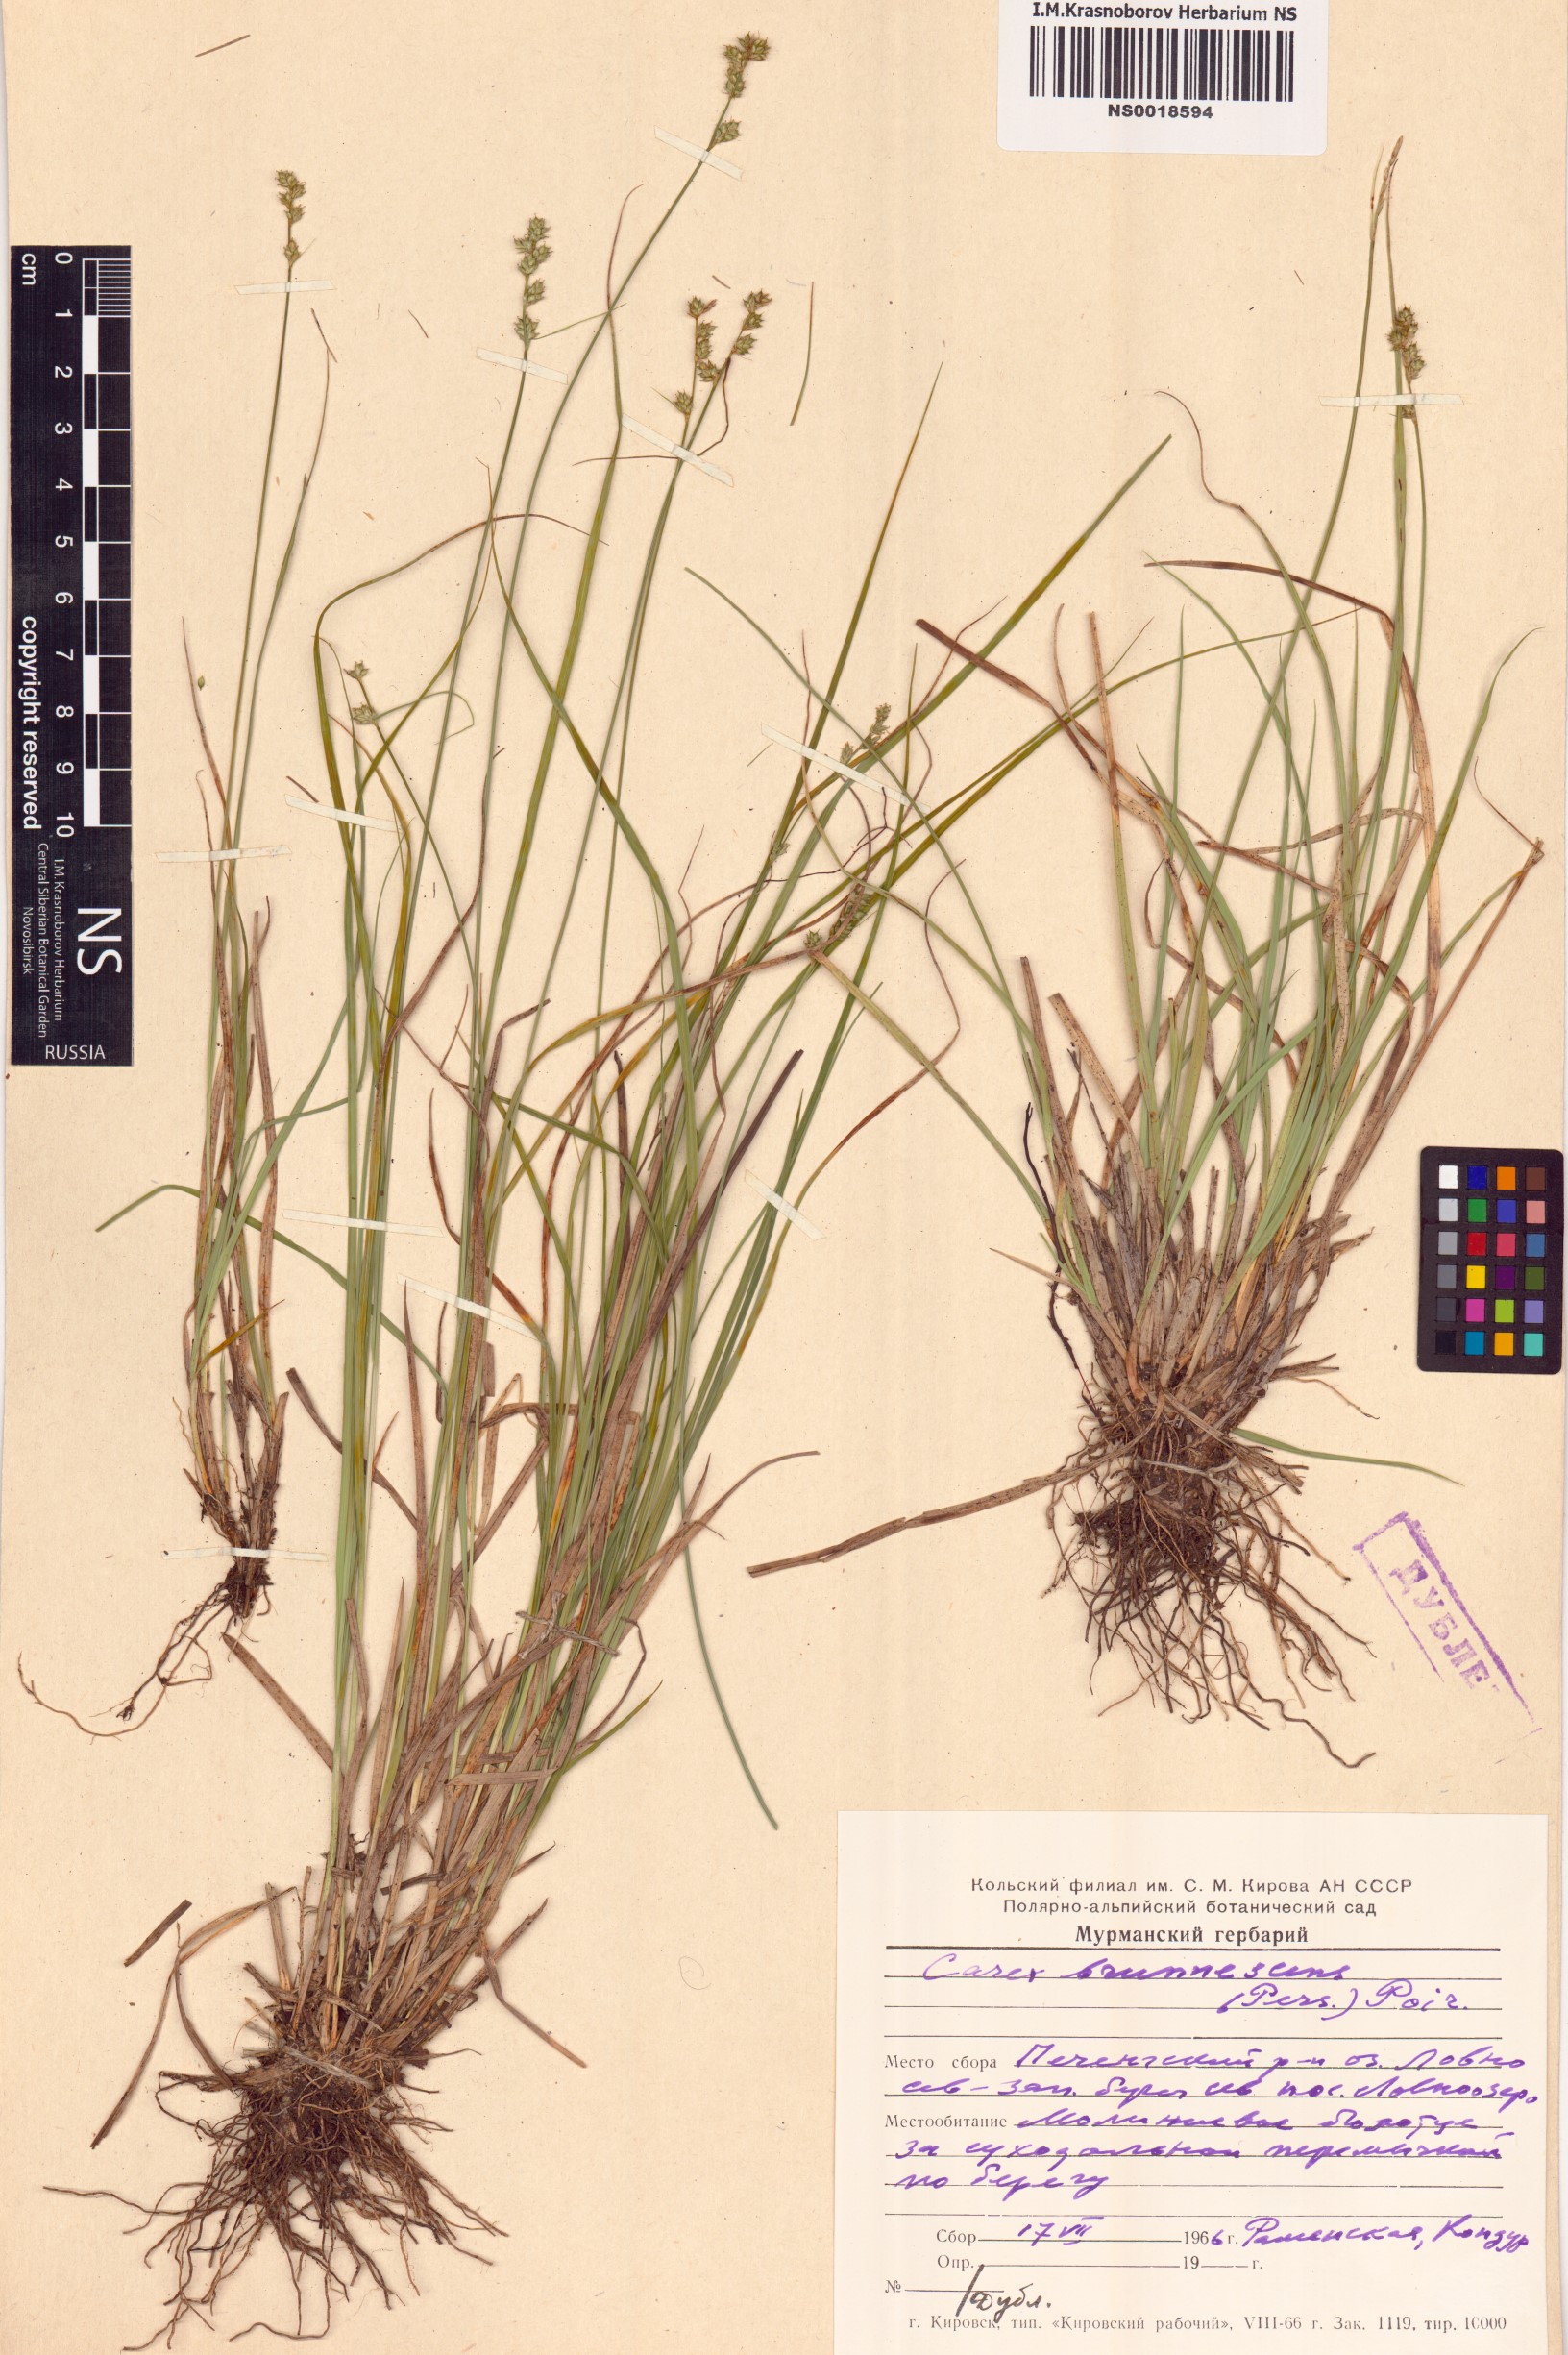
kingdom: Plantae
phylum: Tracheophyta
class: Liliopsida
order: Poales
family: Cyperaceae
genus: Carex
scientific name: Carex brunnescens
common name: Brown sedge
